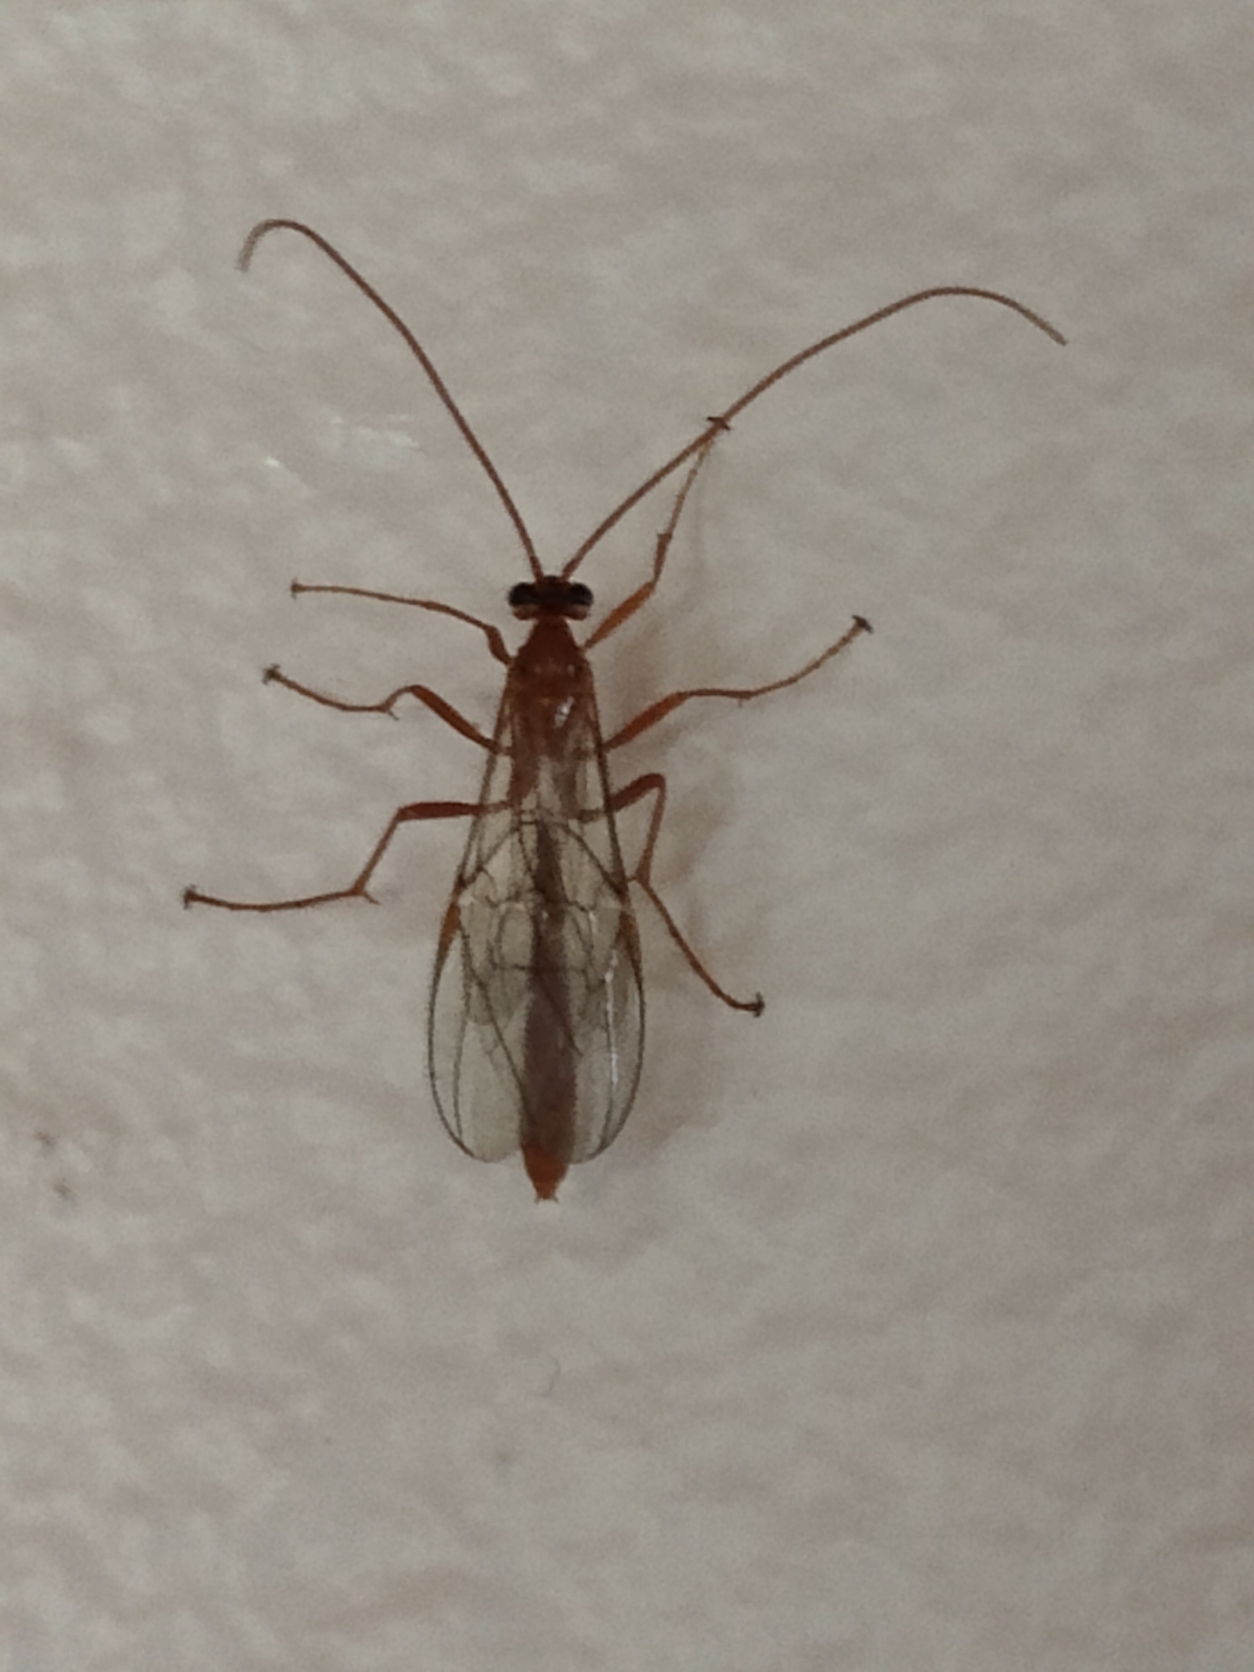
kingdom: Animalia
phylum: Arthropoda
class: Insecta
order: Hymenoptera
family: Ichneumonidae
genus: Ophion
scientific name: Ophion
